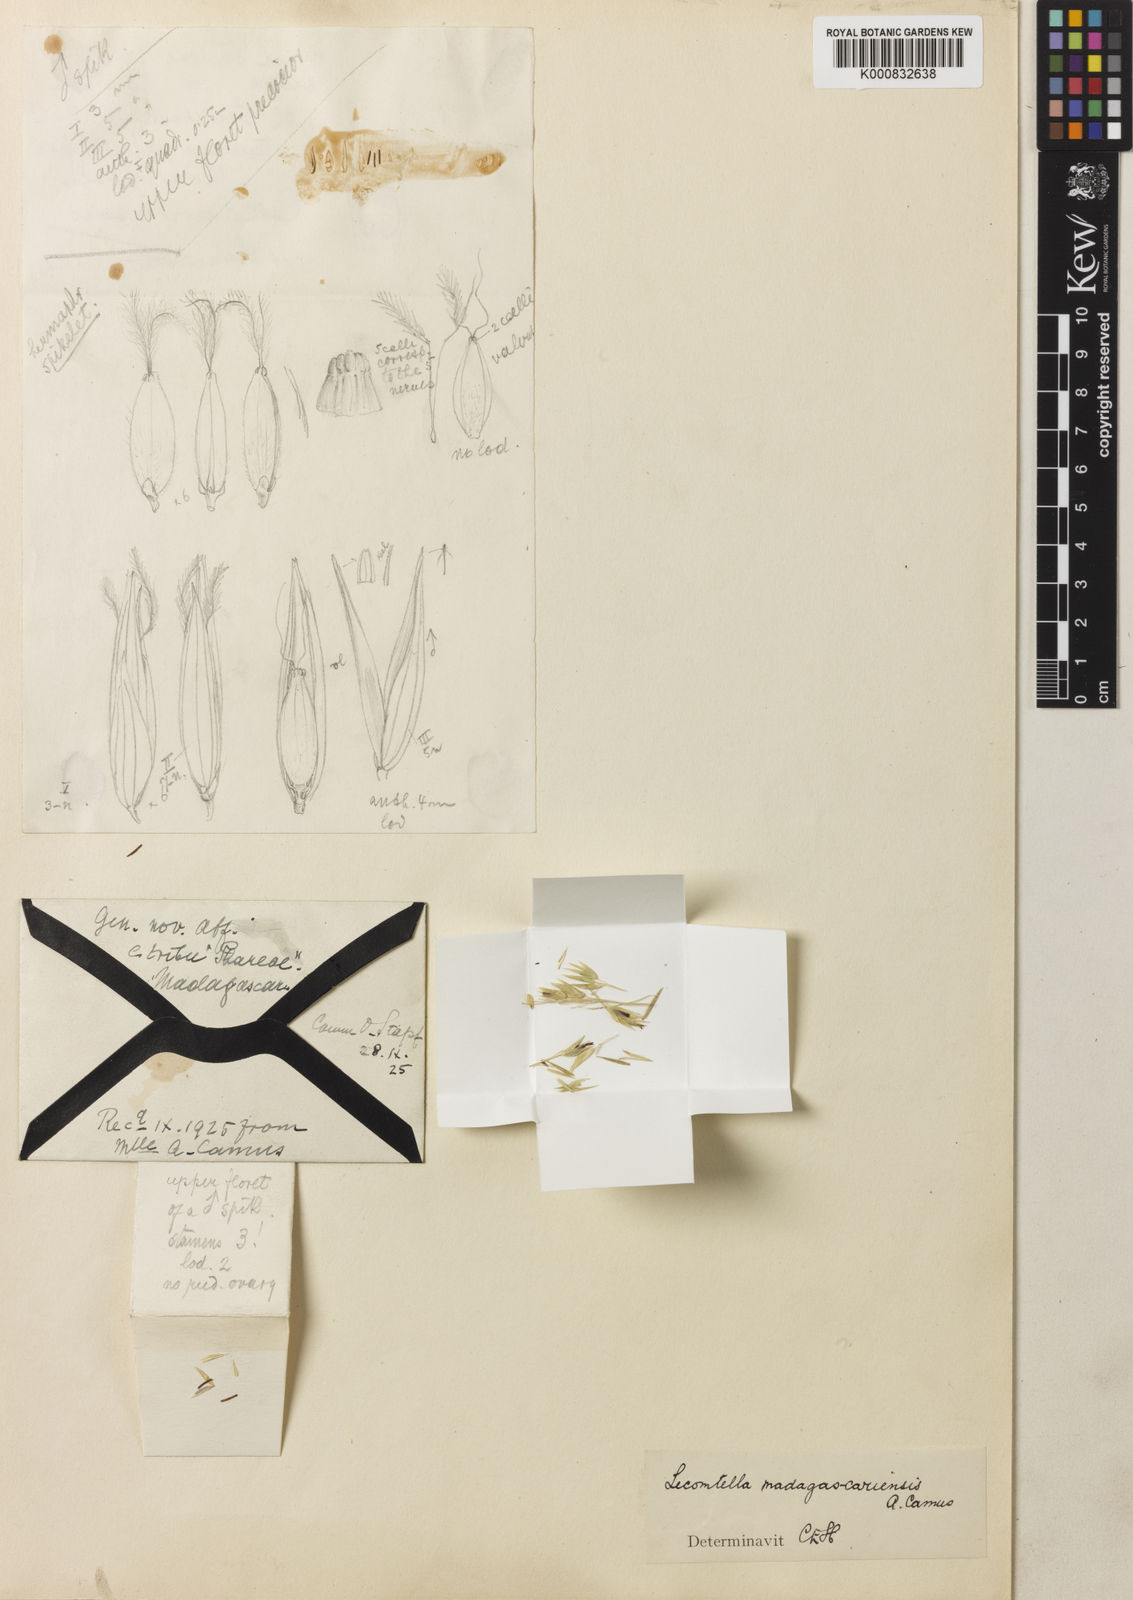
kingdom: Plantae
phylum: Tracheophyta
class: Liliopsida
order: Poales
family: Poaceae
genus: Lecomtella
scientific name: Lecomtella madagascariensis
